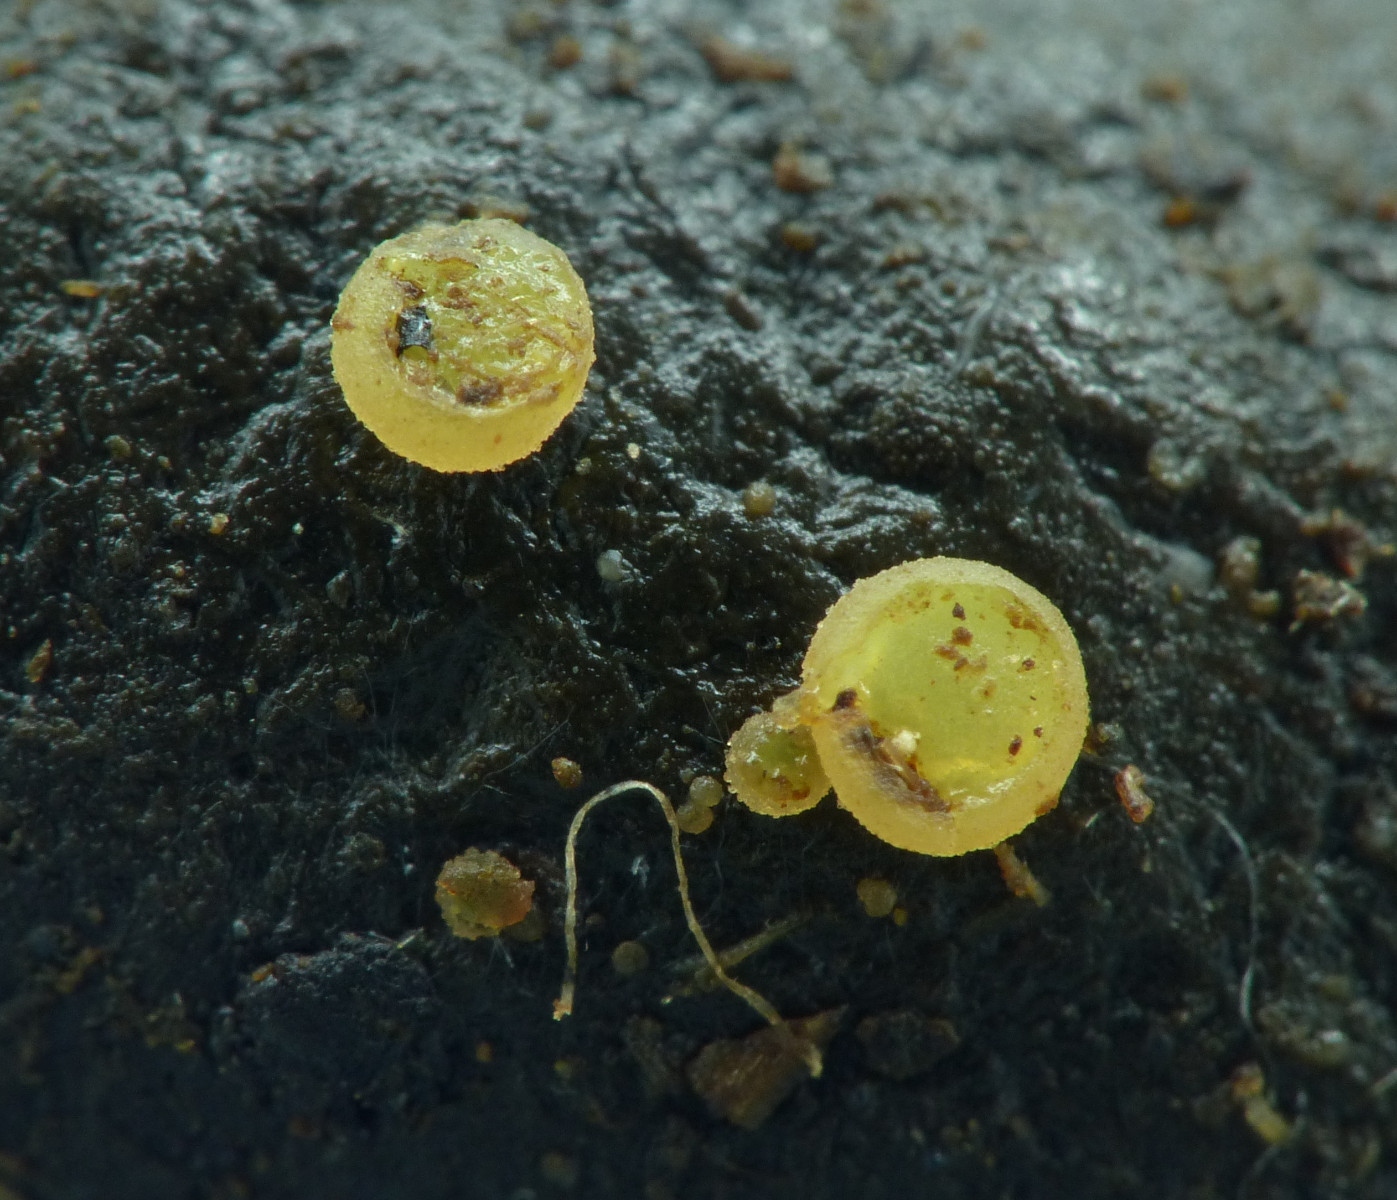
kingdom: Fungi
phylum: Ascomycota
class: Pezizomycetes
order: Pezizales
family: Ascobolaceae
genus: Ascobolus
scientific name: Ascobolus
